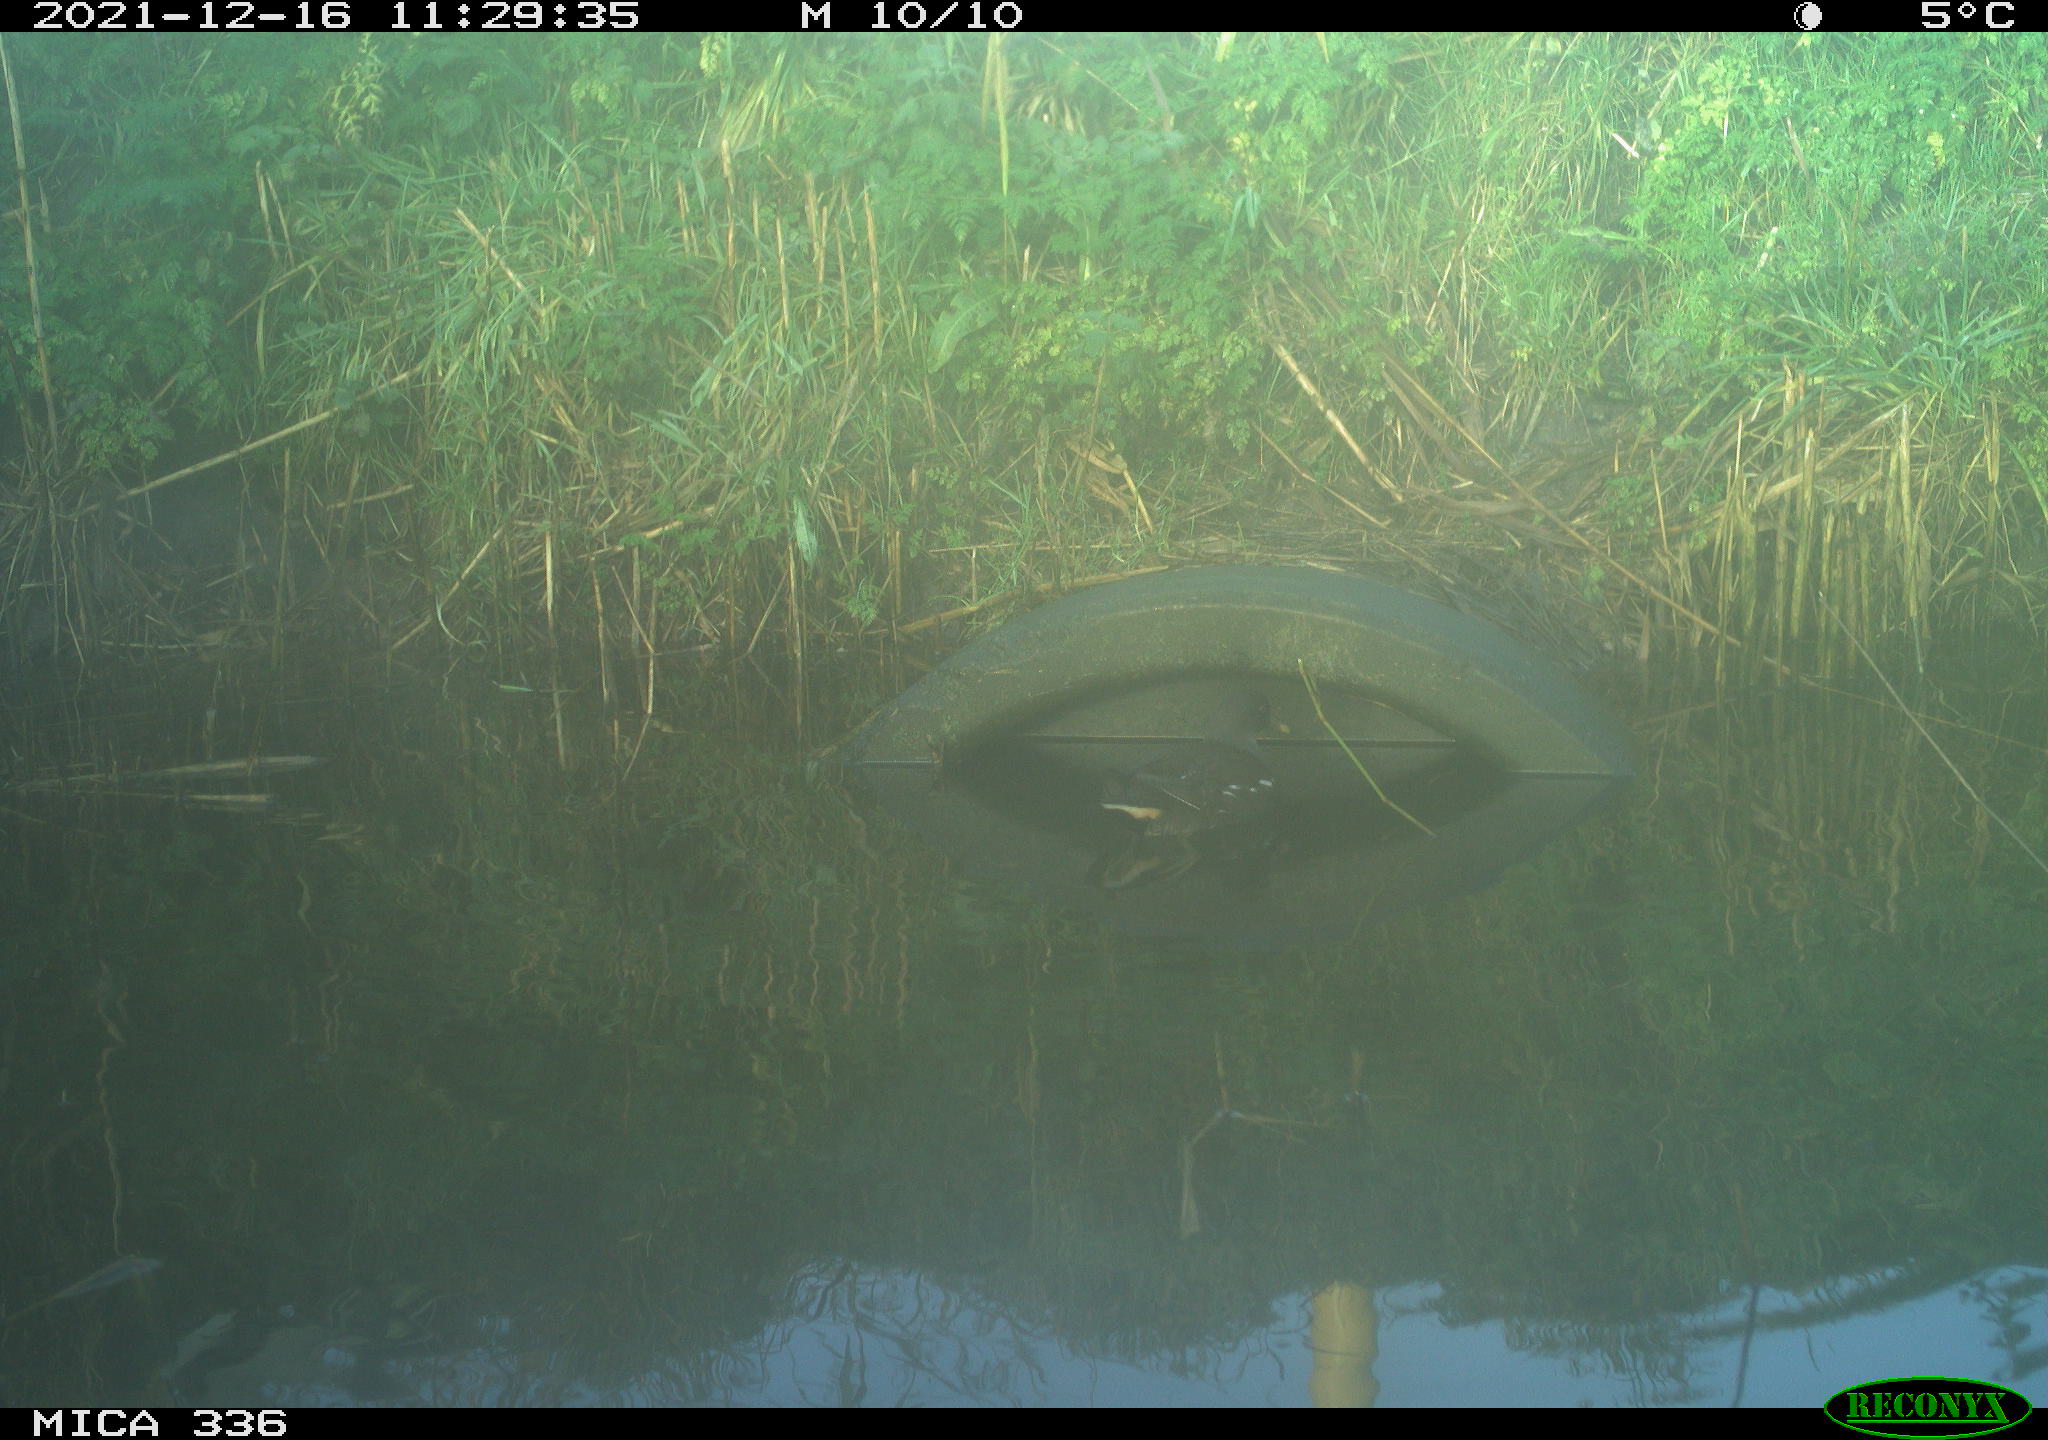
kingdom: Animalia
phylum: Chordata
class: Aves
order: Gruiformes
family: Rallidae
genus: Gallinula
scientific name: Gallinula chloropus
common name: Common moorhen
